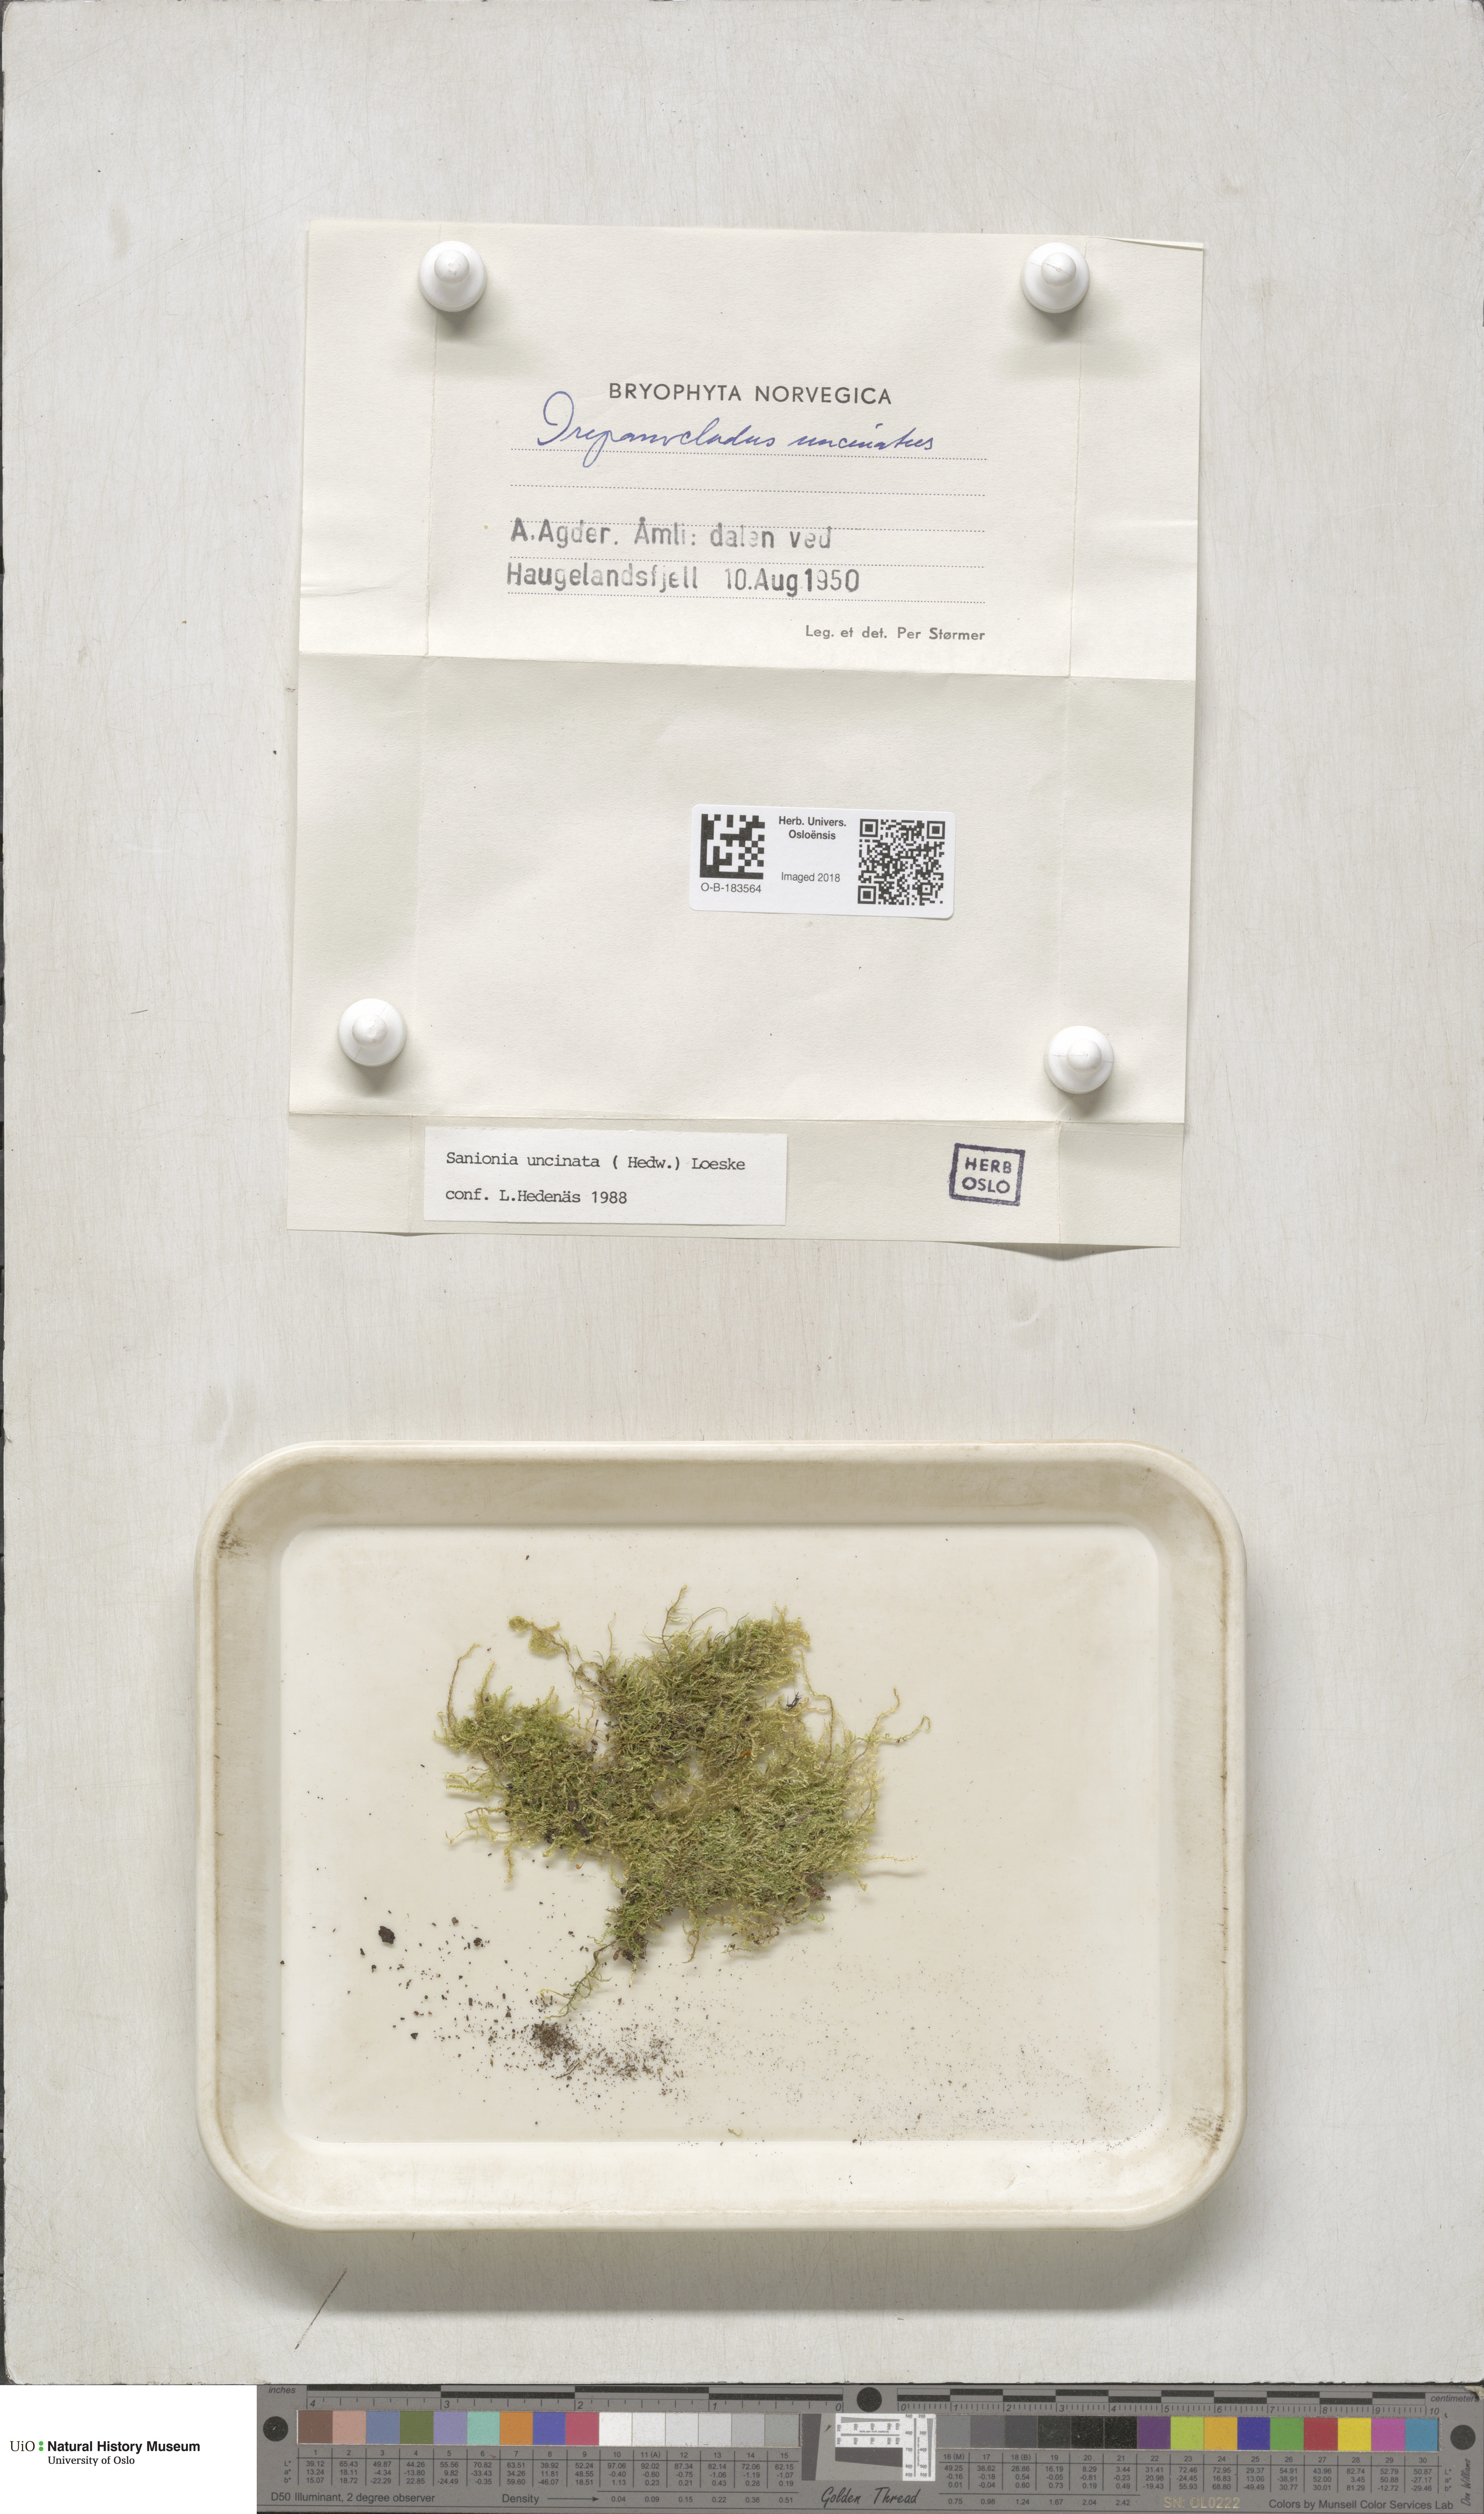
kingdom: Plantae
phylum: Bryophyta
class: Bryopsida
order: Hypnales
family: Scorpidiaceae
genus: Sanionia
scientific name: Sanionia uncinata
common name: Sickle moss
